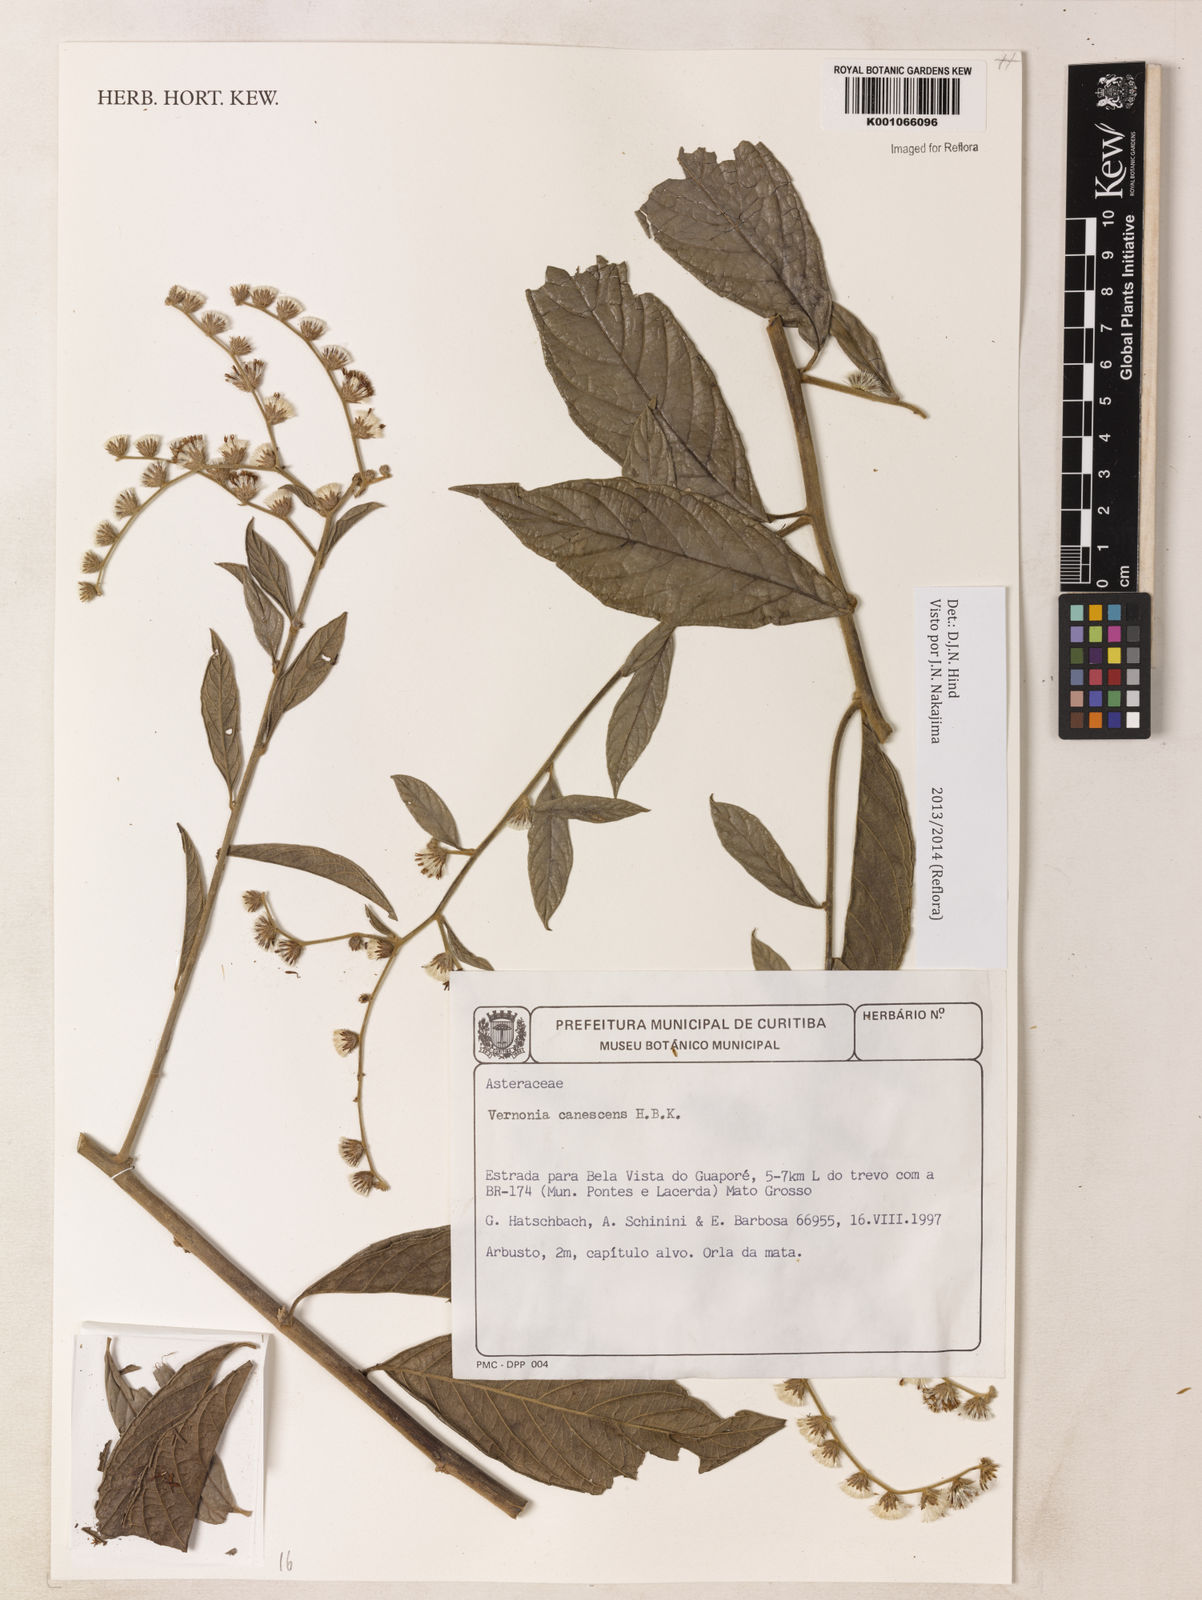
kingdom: Plantae
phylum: Tracheophyta
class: Magnoliopsida
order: Asterales
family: Asteraceae
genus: Lepidaploa
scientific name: Lepidaploa canescens
